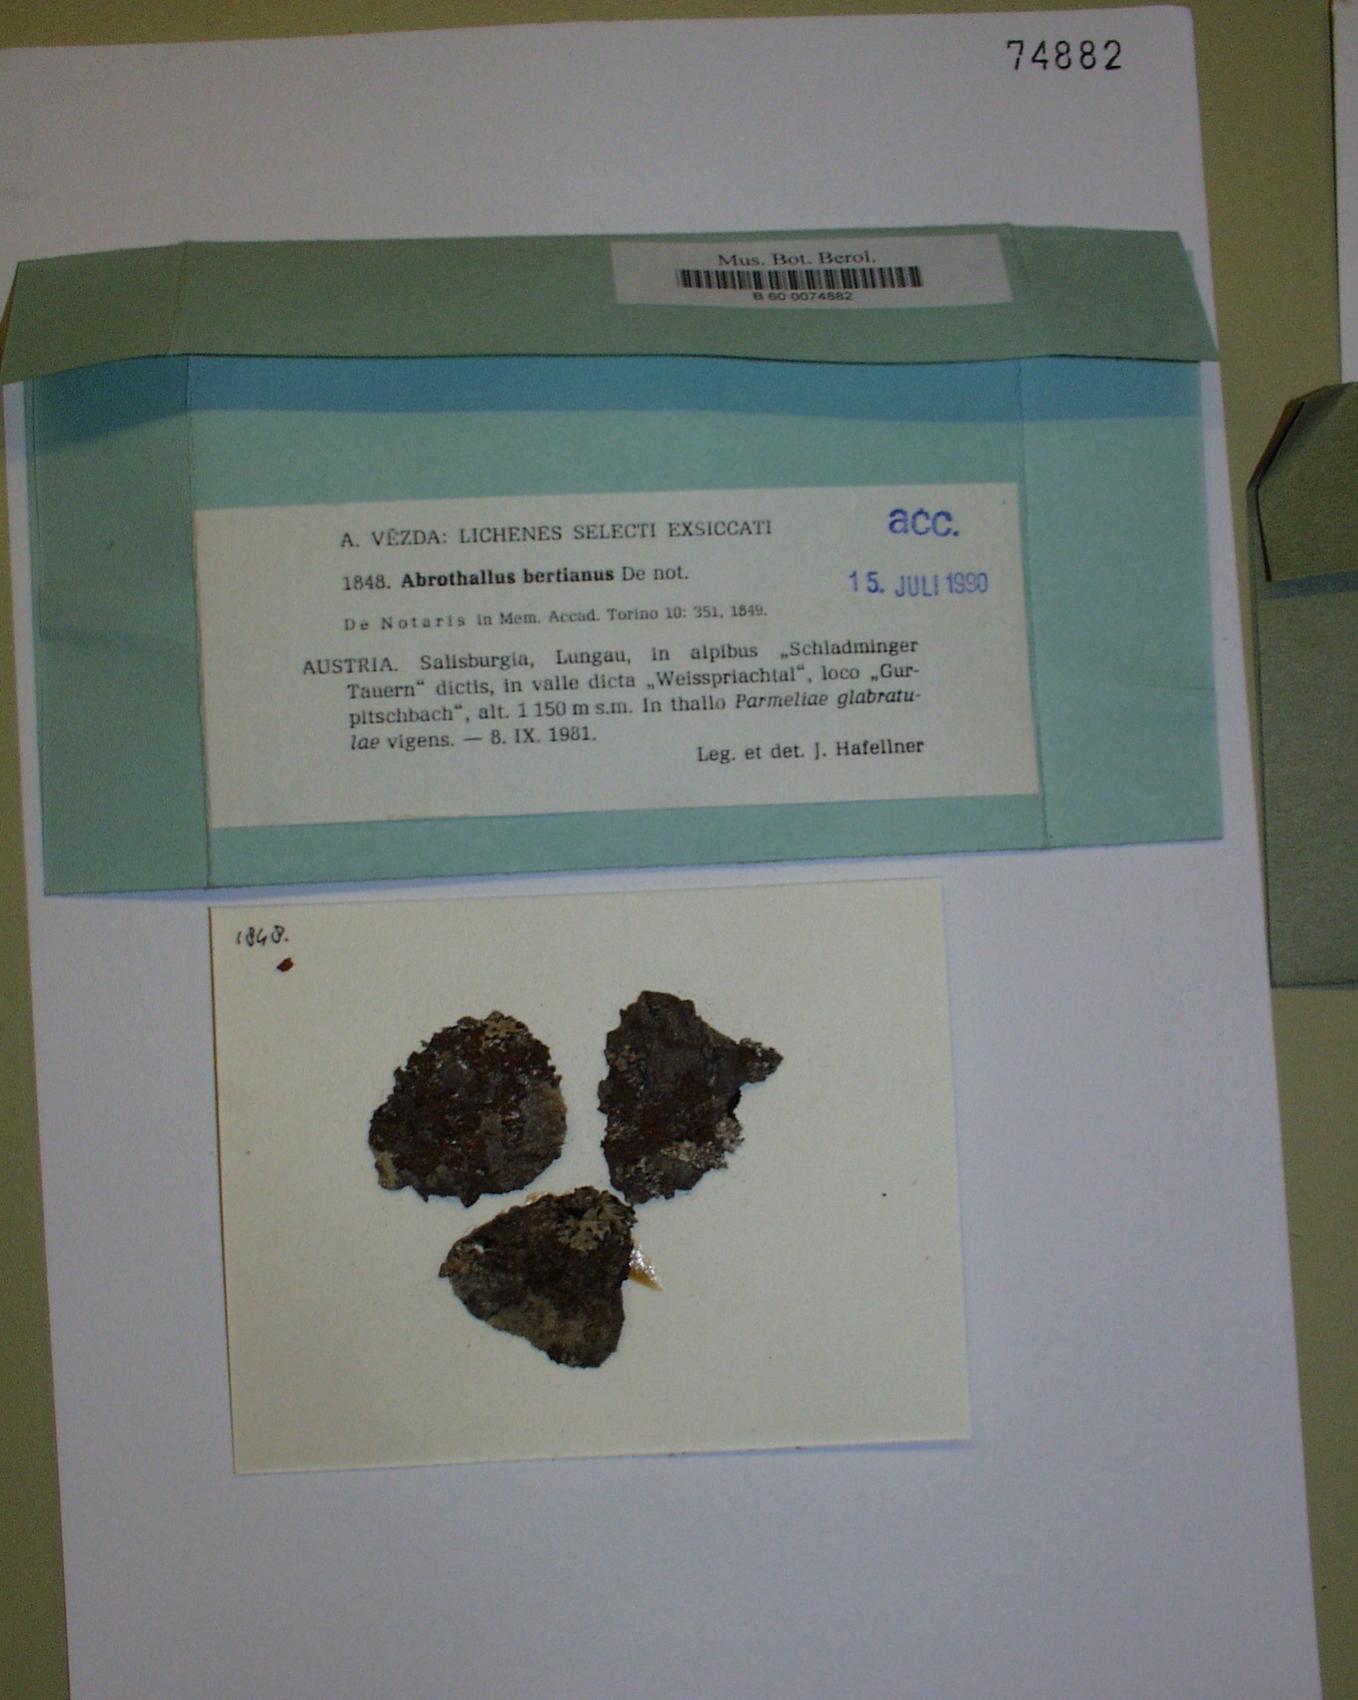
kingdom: Fungi
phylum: Ascomycota
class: Dothideomycetes
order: Abrothallales
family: Abrothallaceae
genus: Abrothallus
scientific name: Abrothallus parmeliarum
